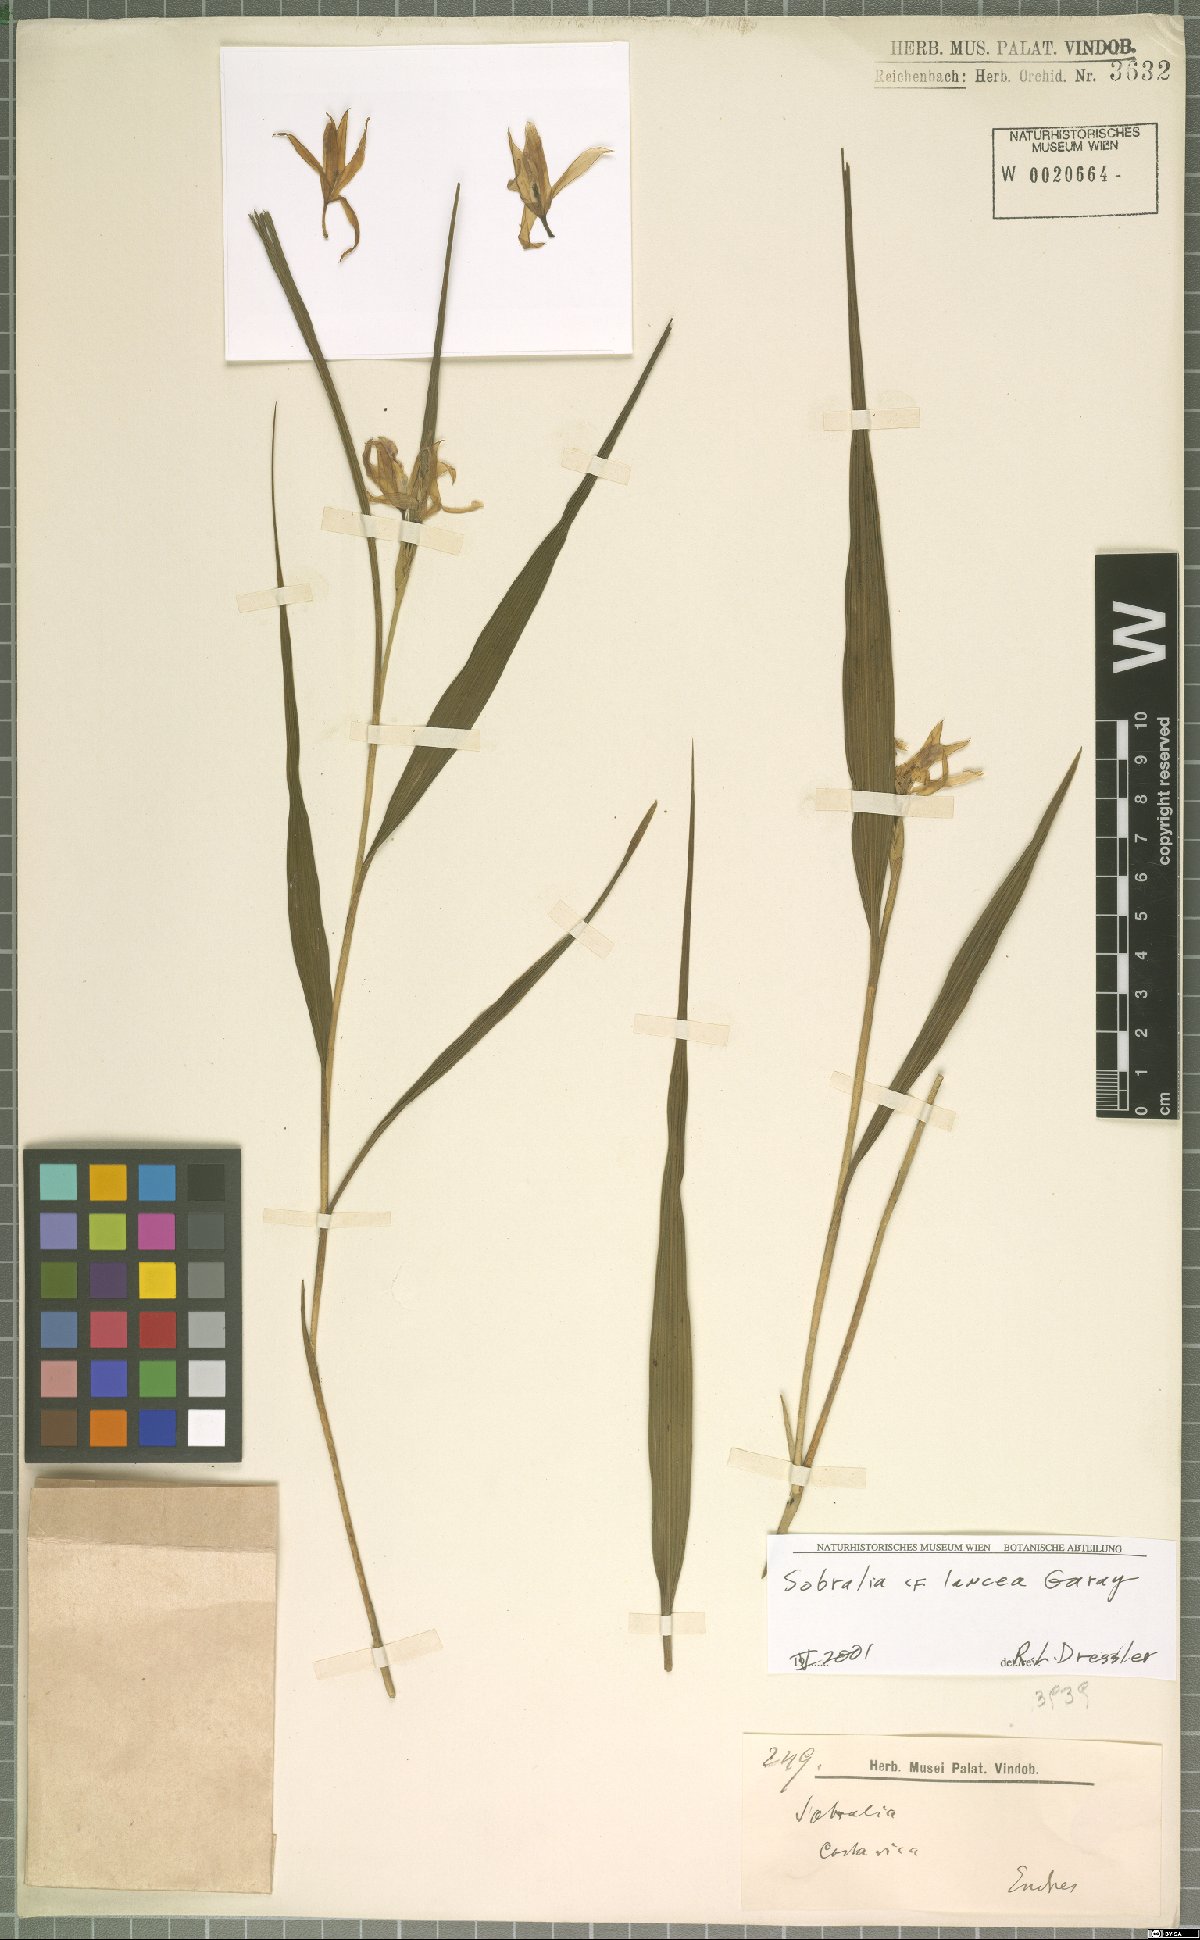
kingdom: Plantae
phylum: Tracheophyta
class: Liliopsida
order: Asparagales
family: Orchidaceae
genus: Sobralia
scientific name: Sobralia lancea
